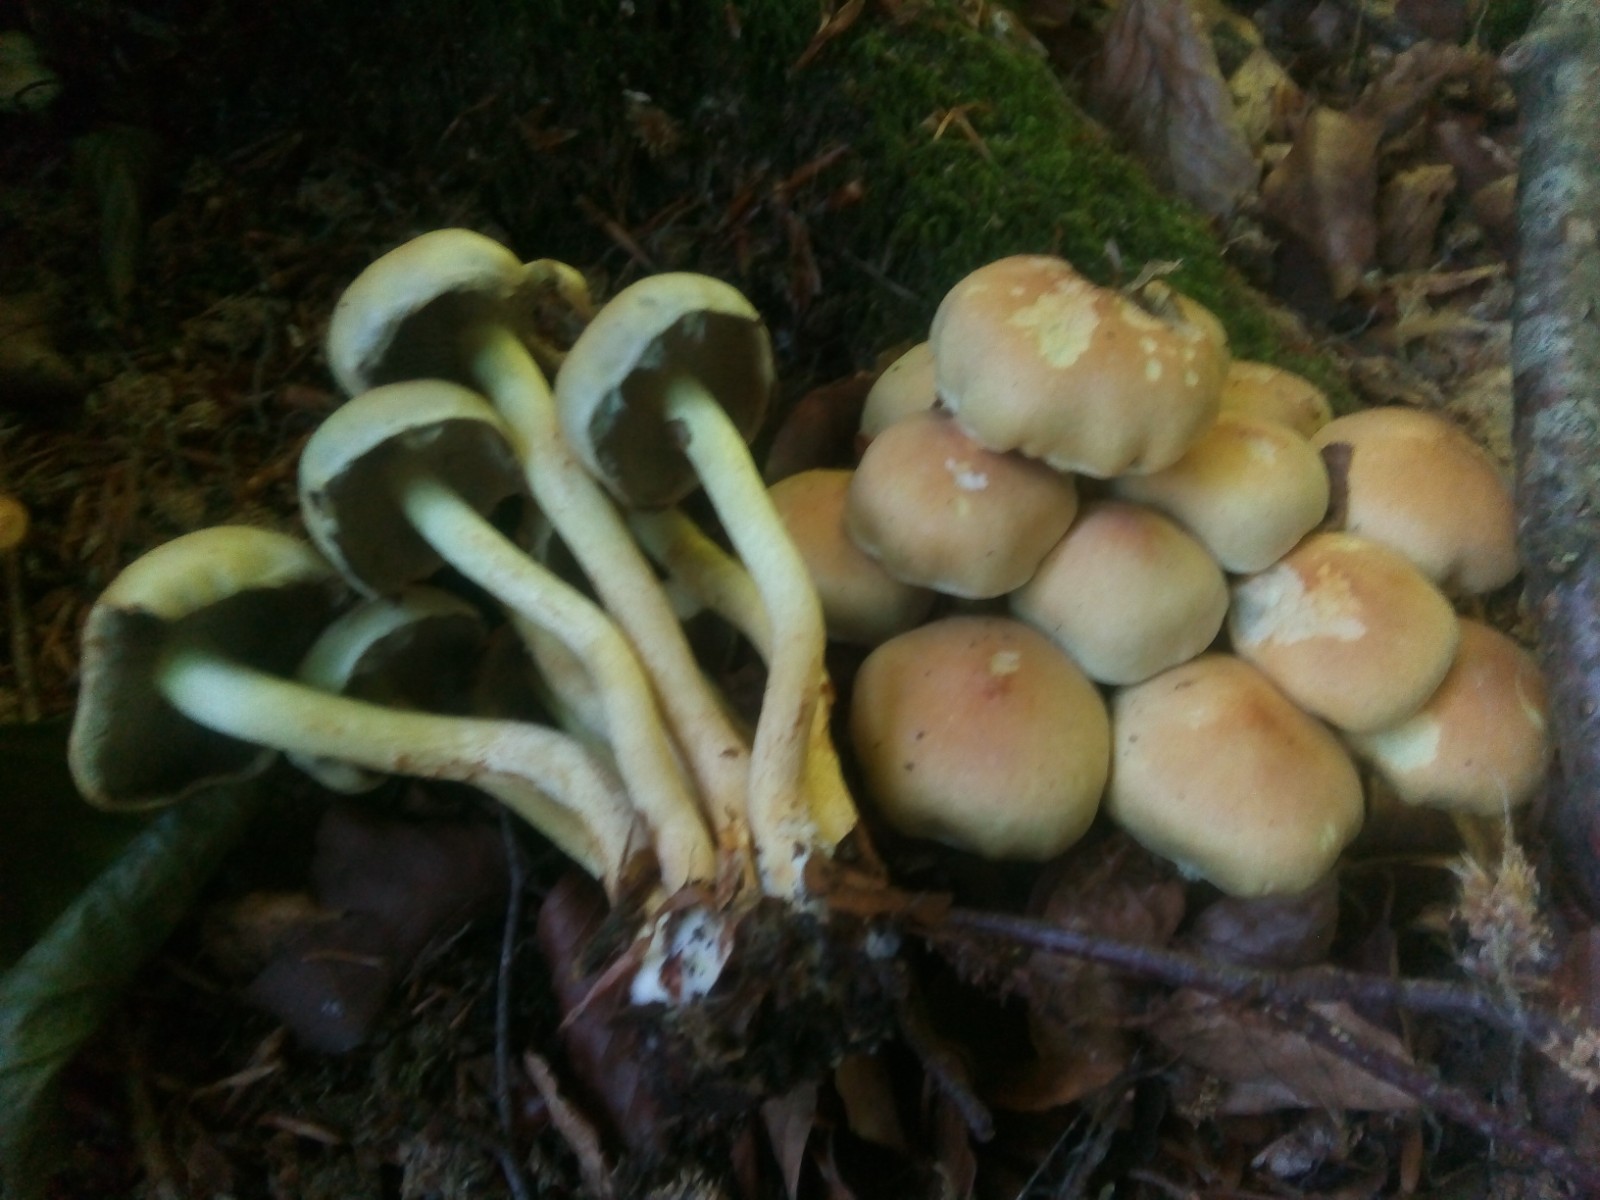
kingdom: Fungi
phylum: Basidiomycota
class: Agaricomycetes
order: Agaricales
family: Strophariaceae
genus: Hypholoma
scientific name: Hypholoma fasciculare
